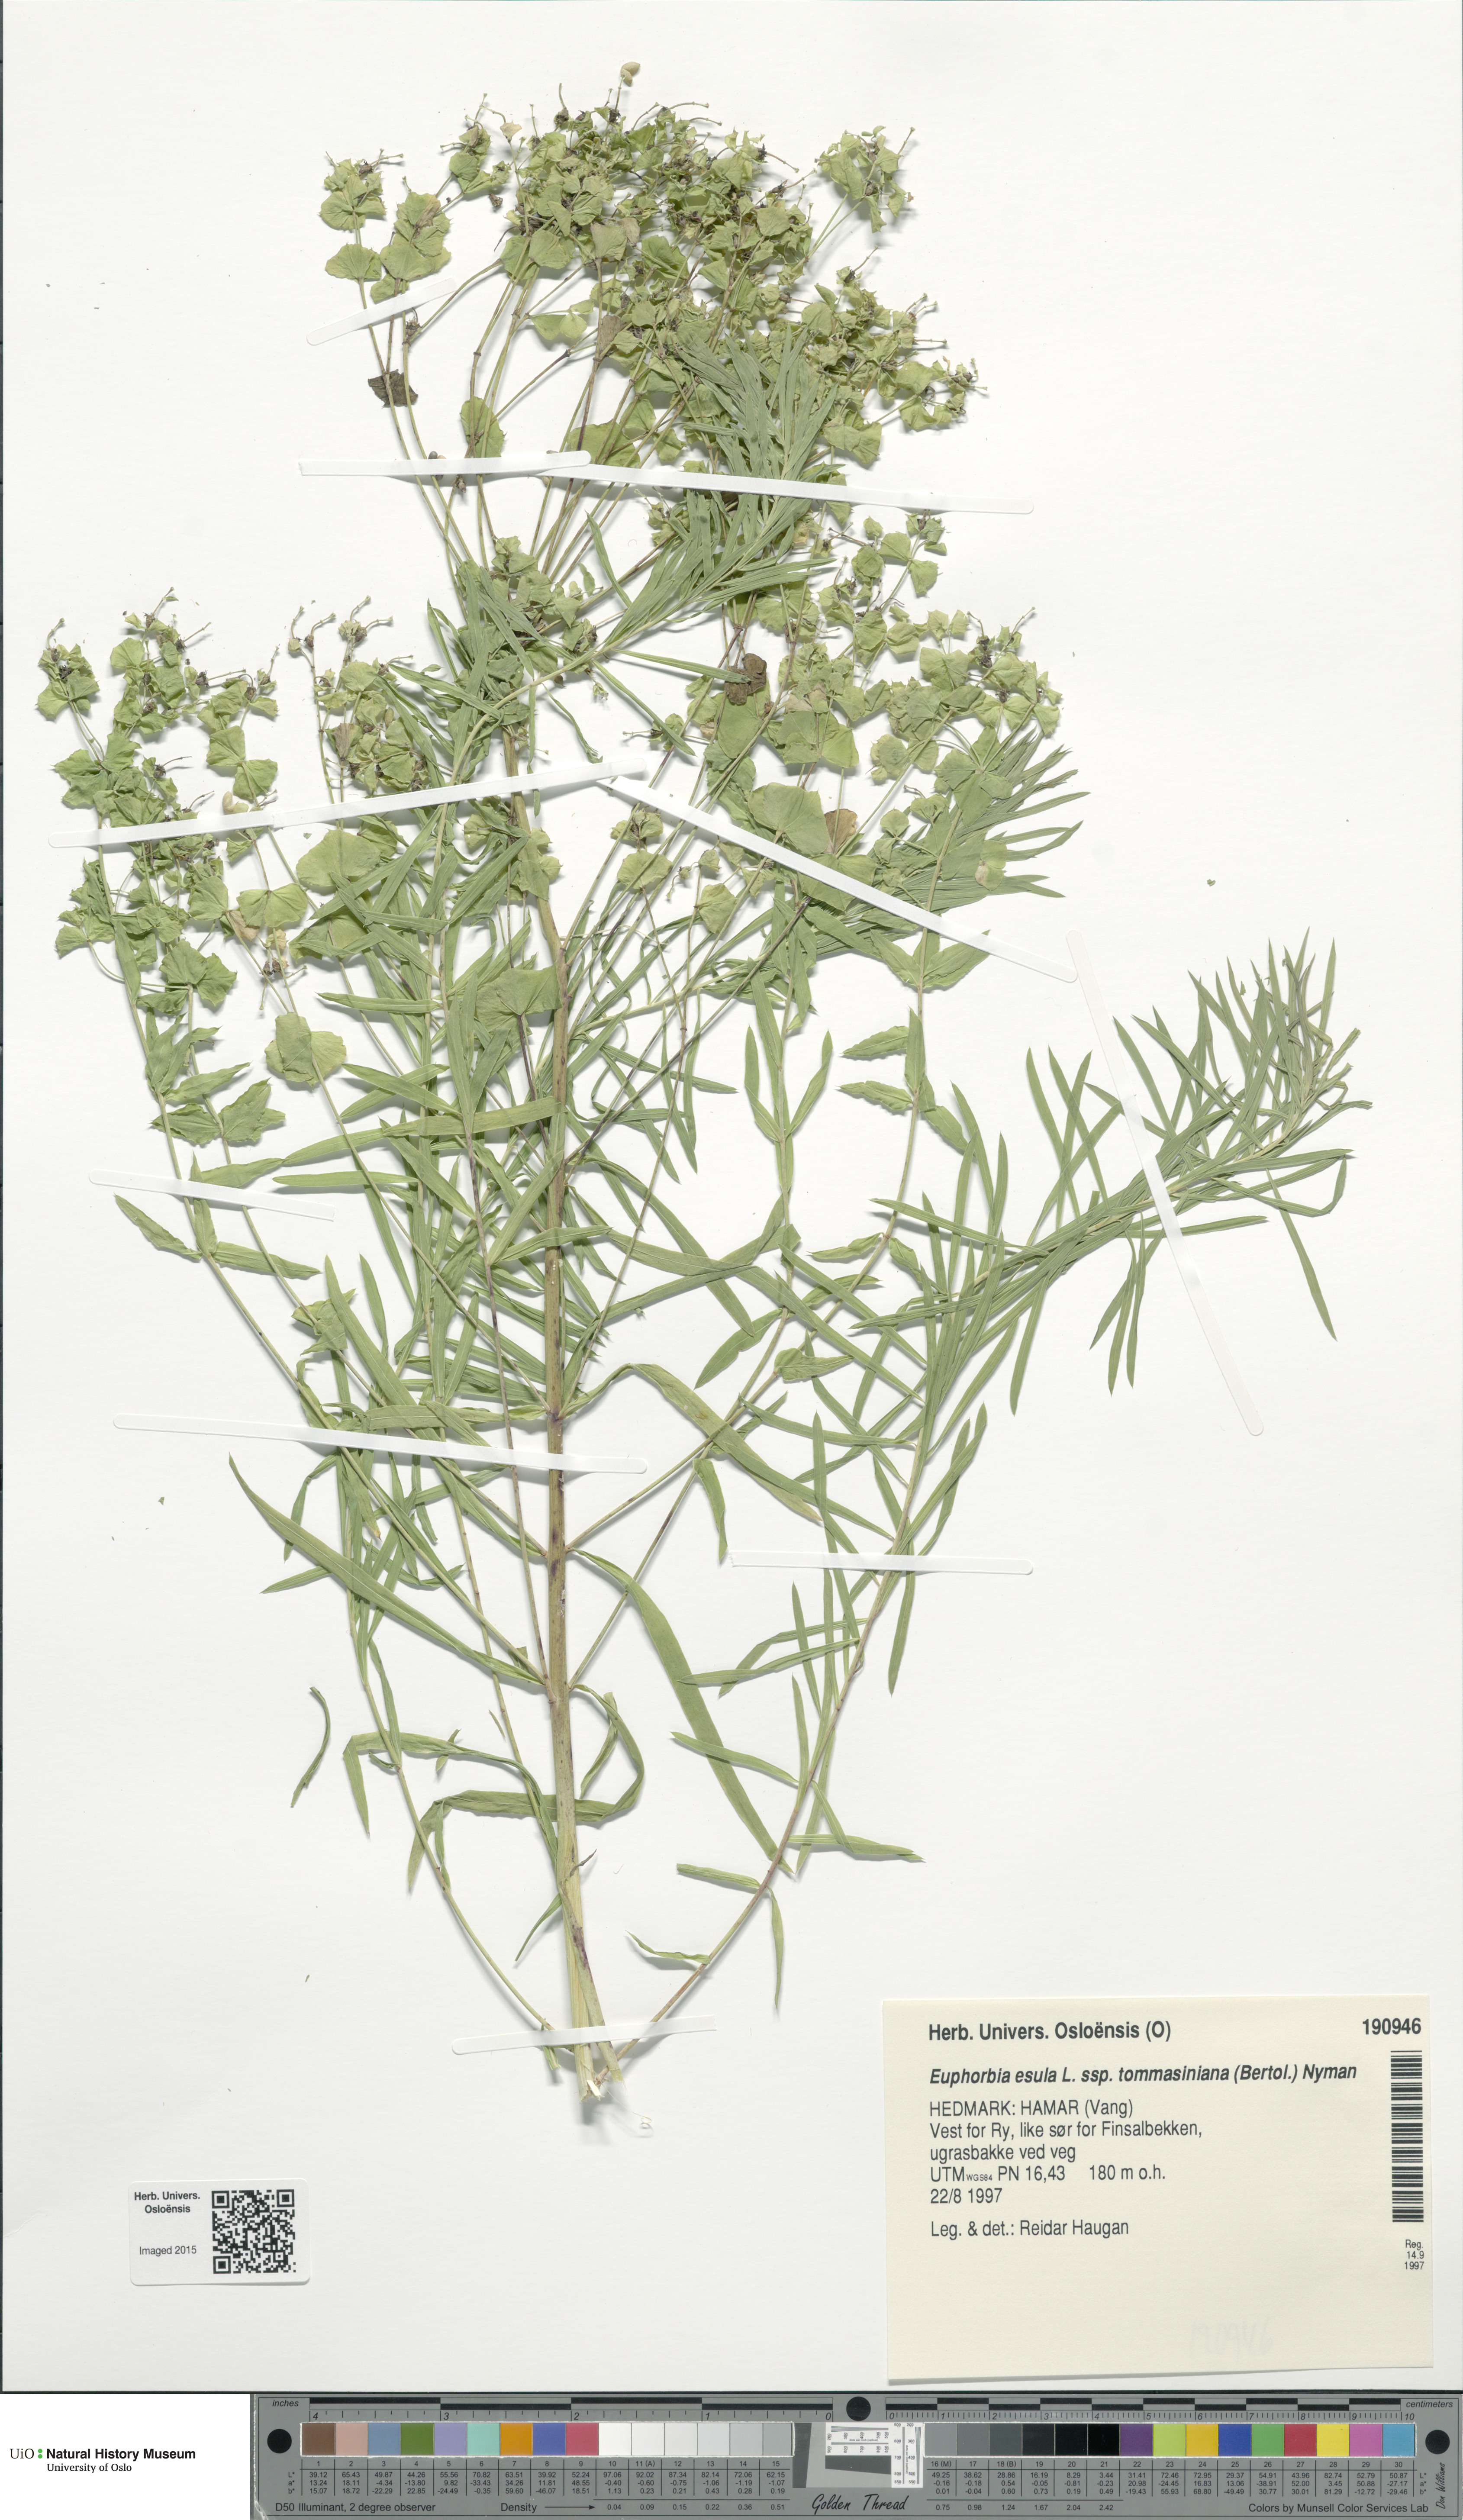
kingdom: Plantae
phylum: Tracheophyta
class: Magnoliopsida
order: Malpighiales
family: Euphorbiaceae
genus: Euphorbia
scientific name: Euphorbia tommasiniana
